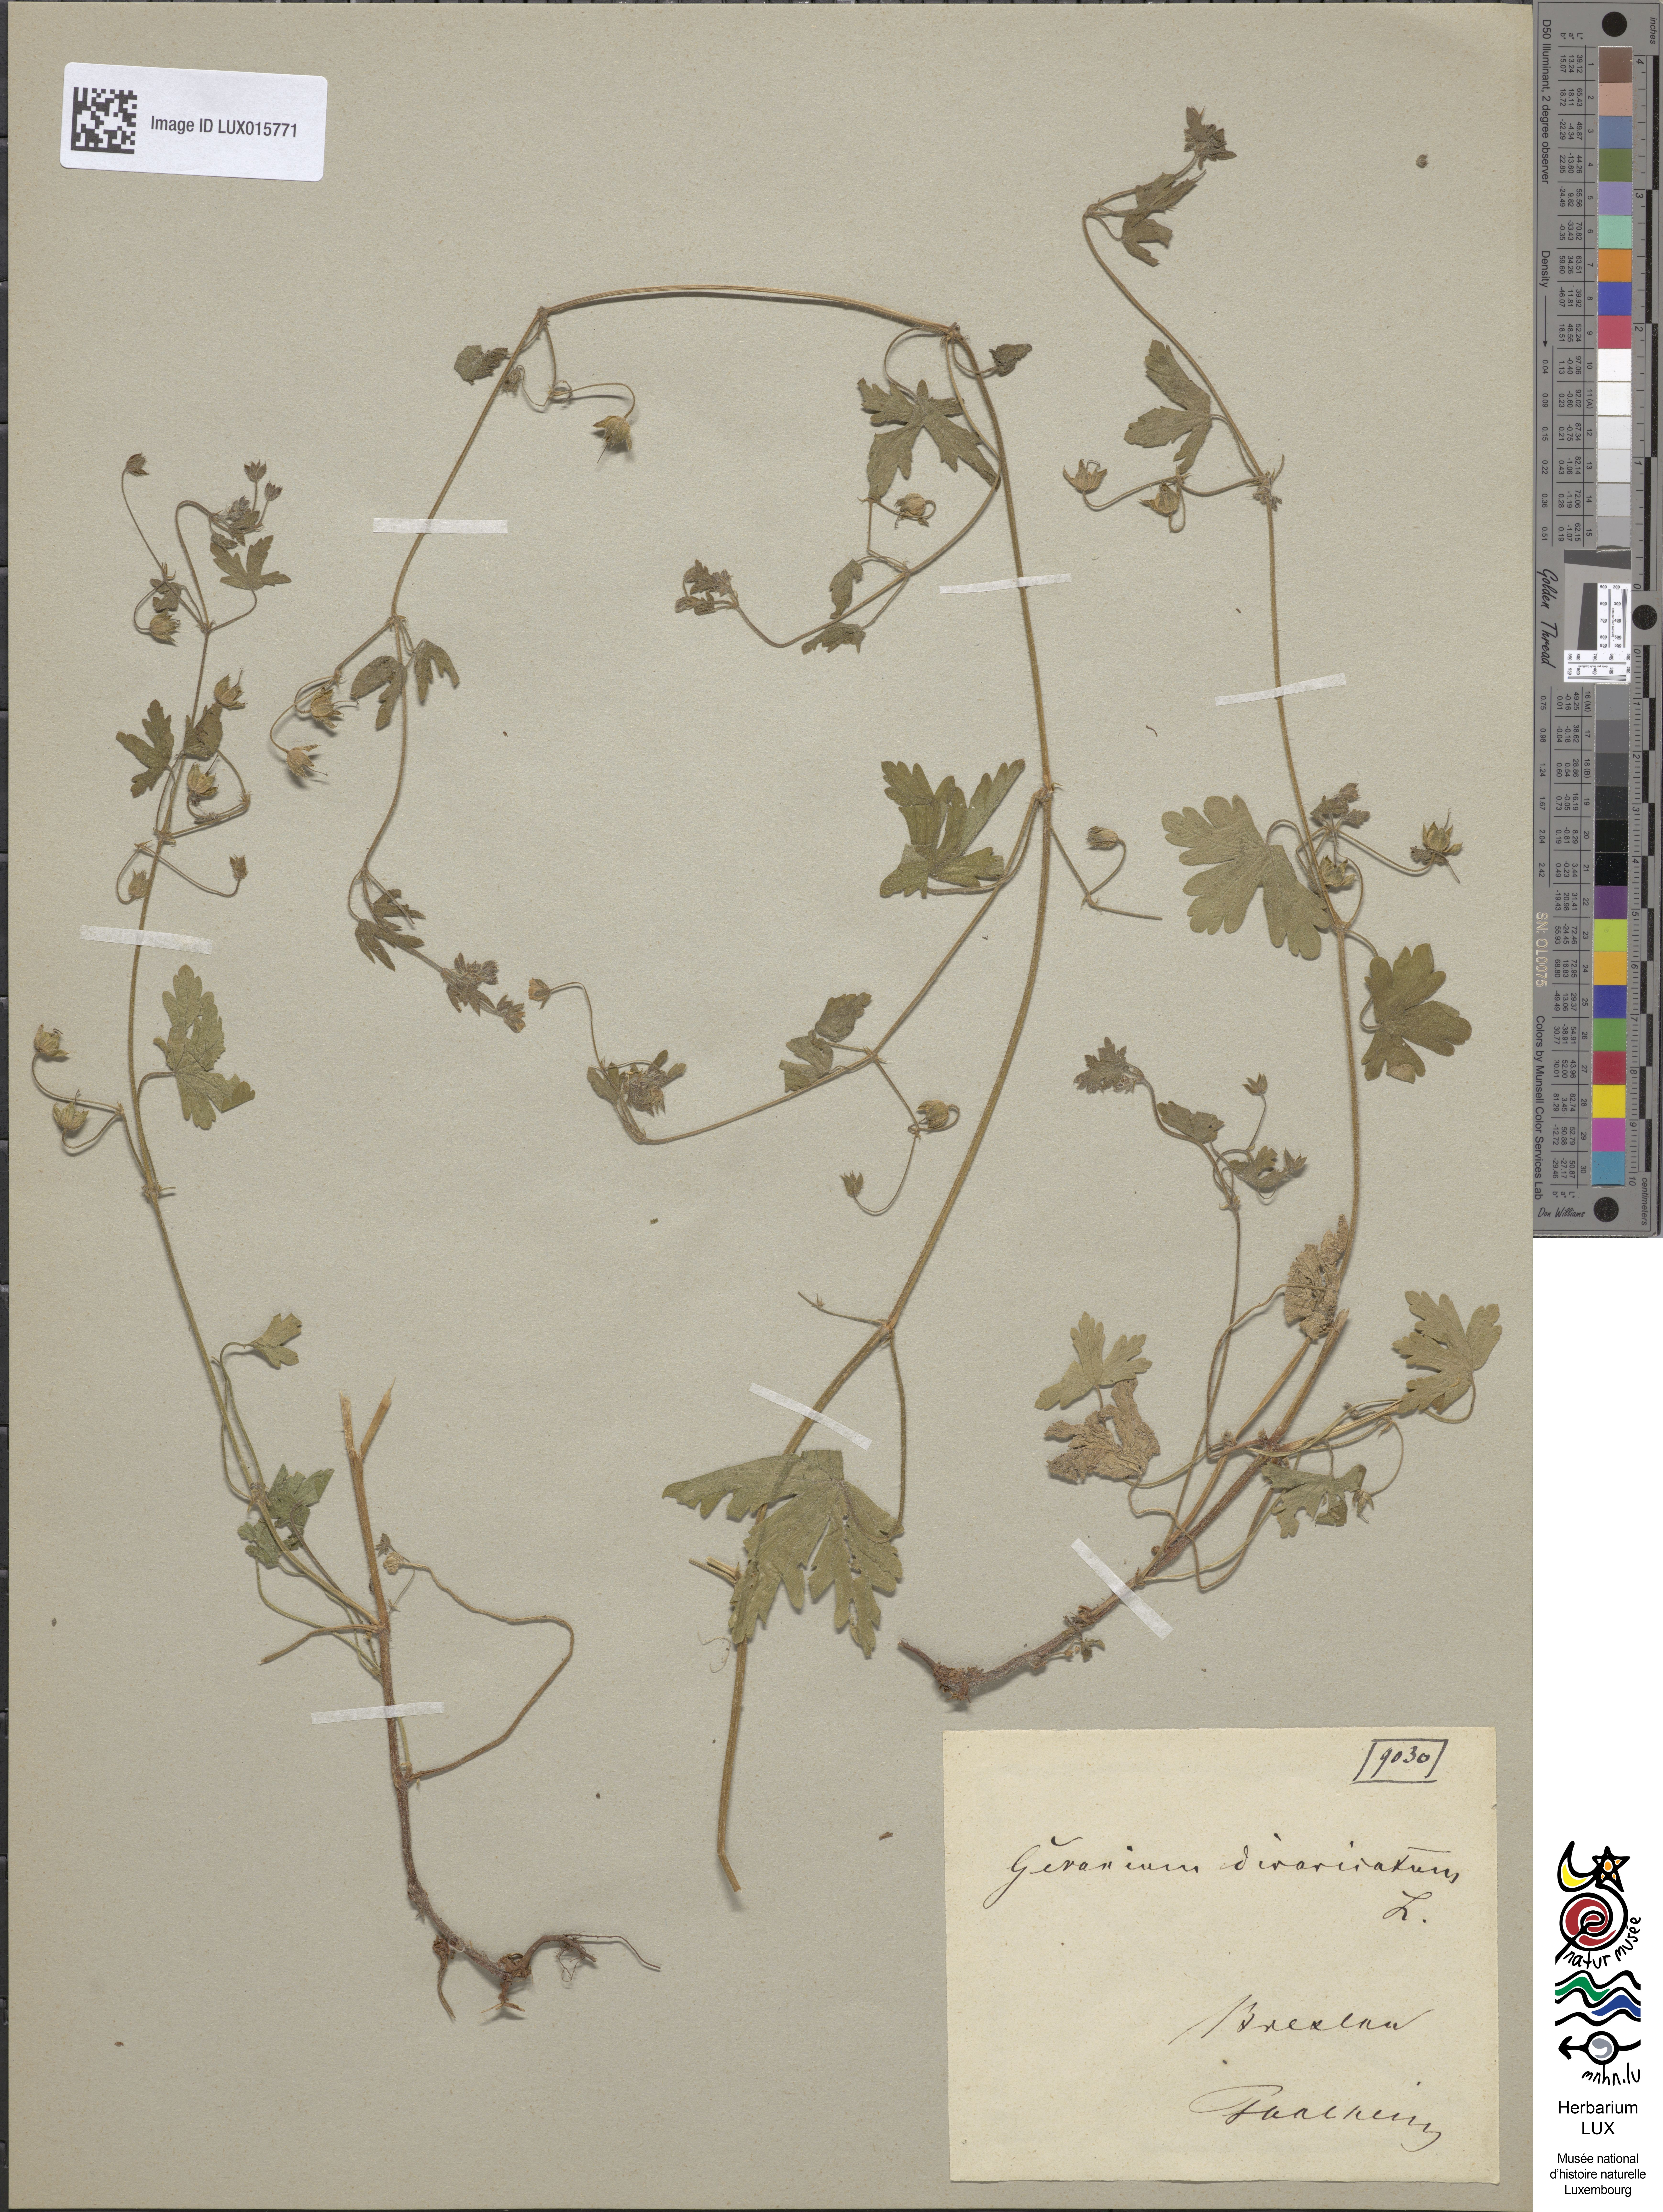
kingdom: Plantae
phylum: Tracheophyta
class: Magnoliopsida
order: Geraniales
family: Geraniaceae
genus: Geranium
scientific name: Geranium divaricatum
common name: Spreading crane's-bill
